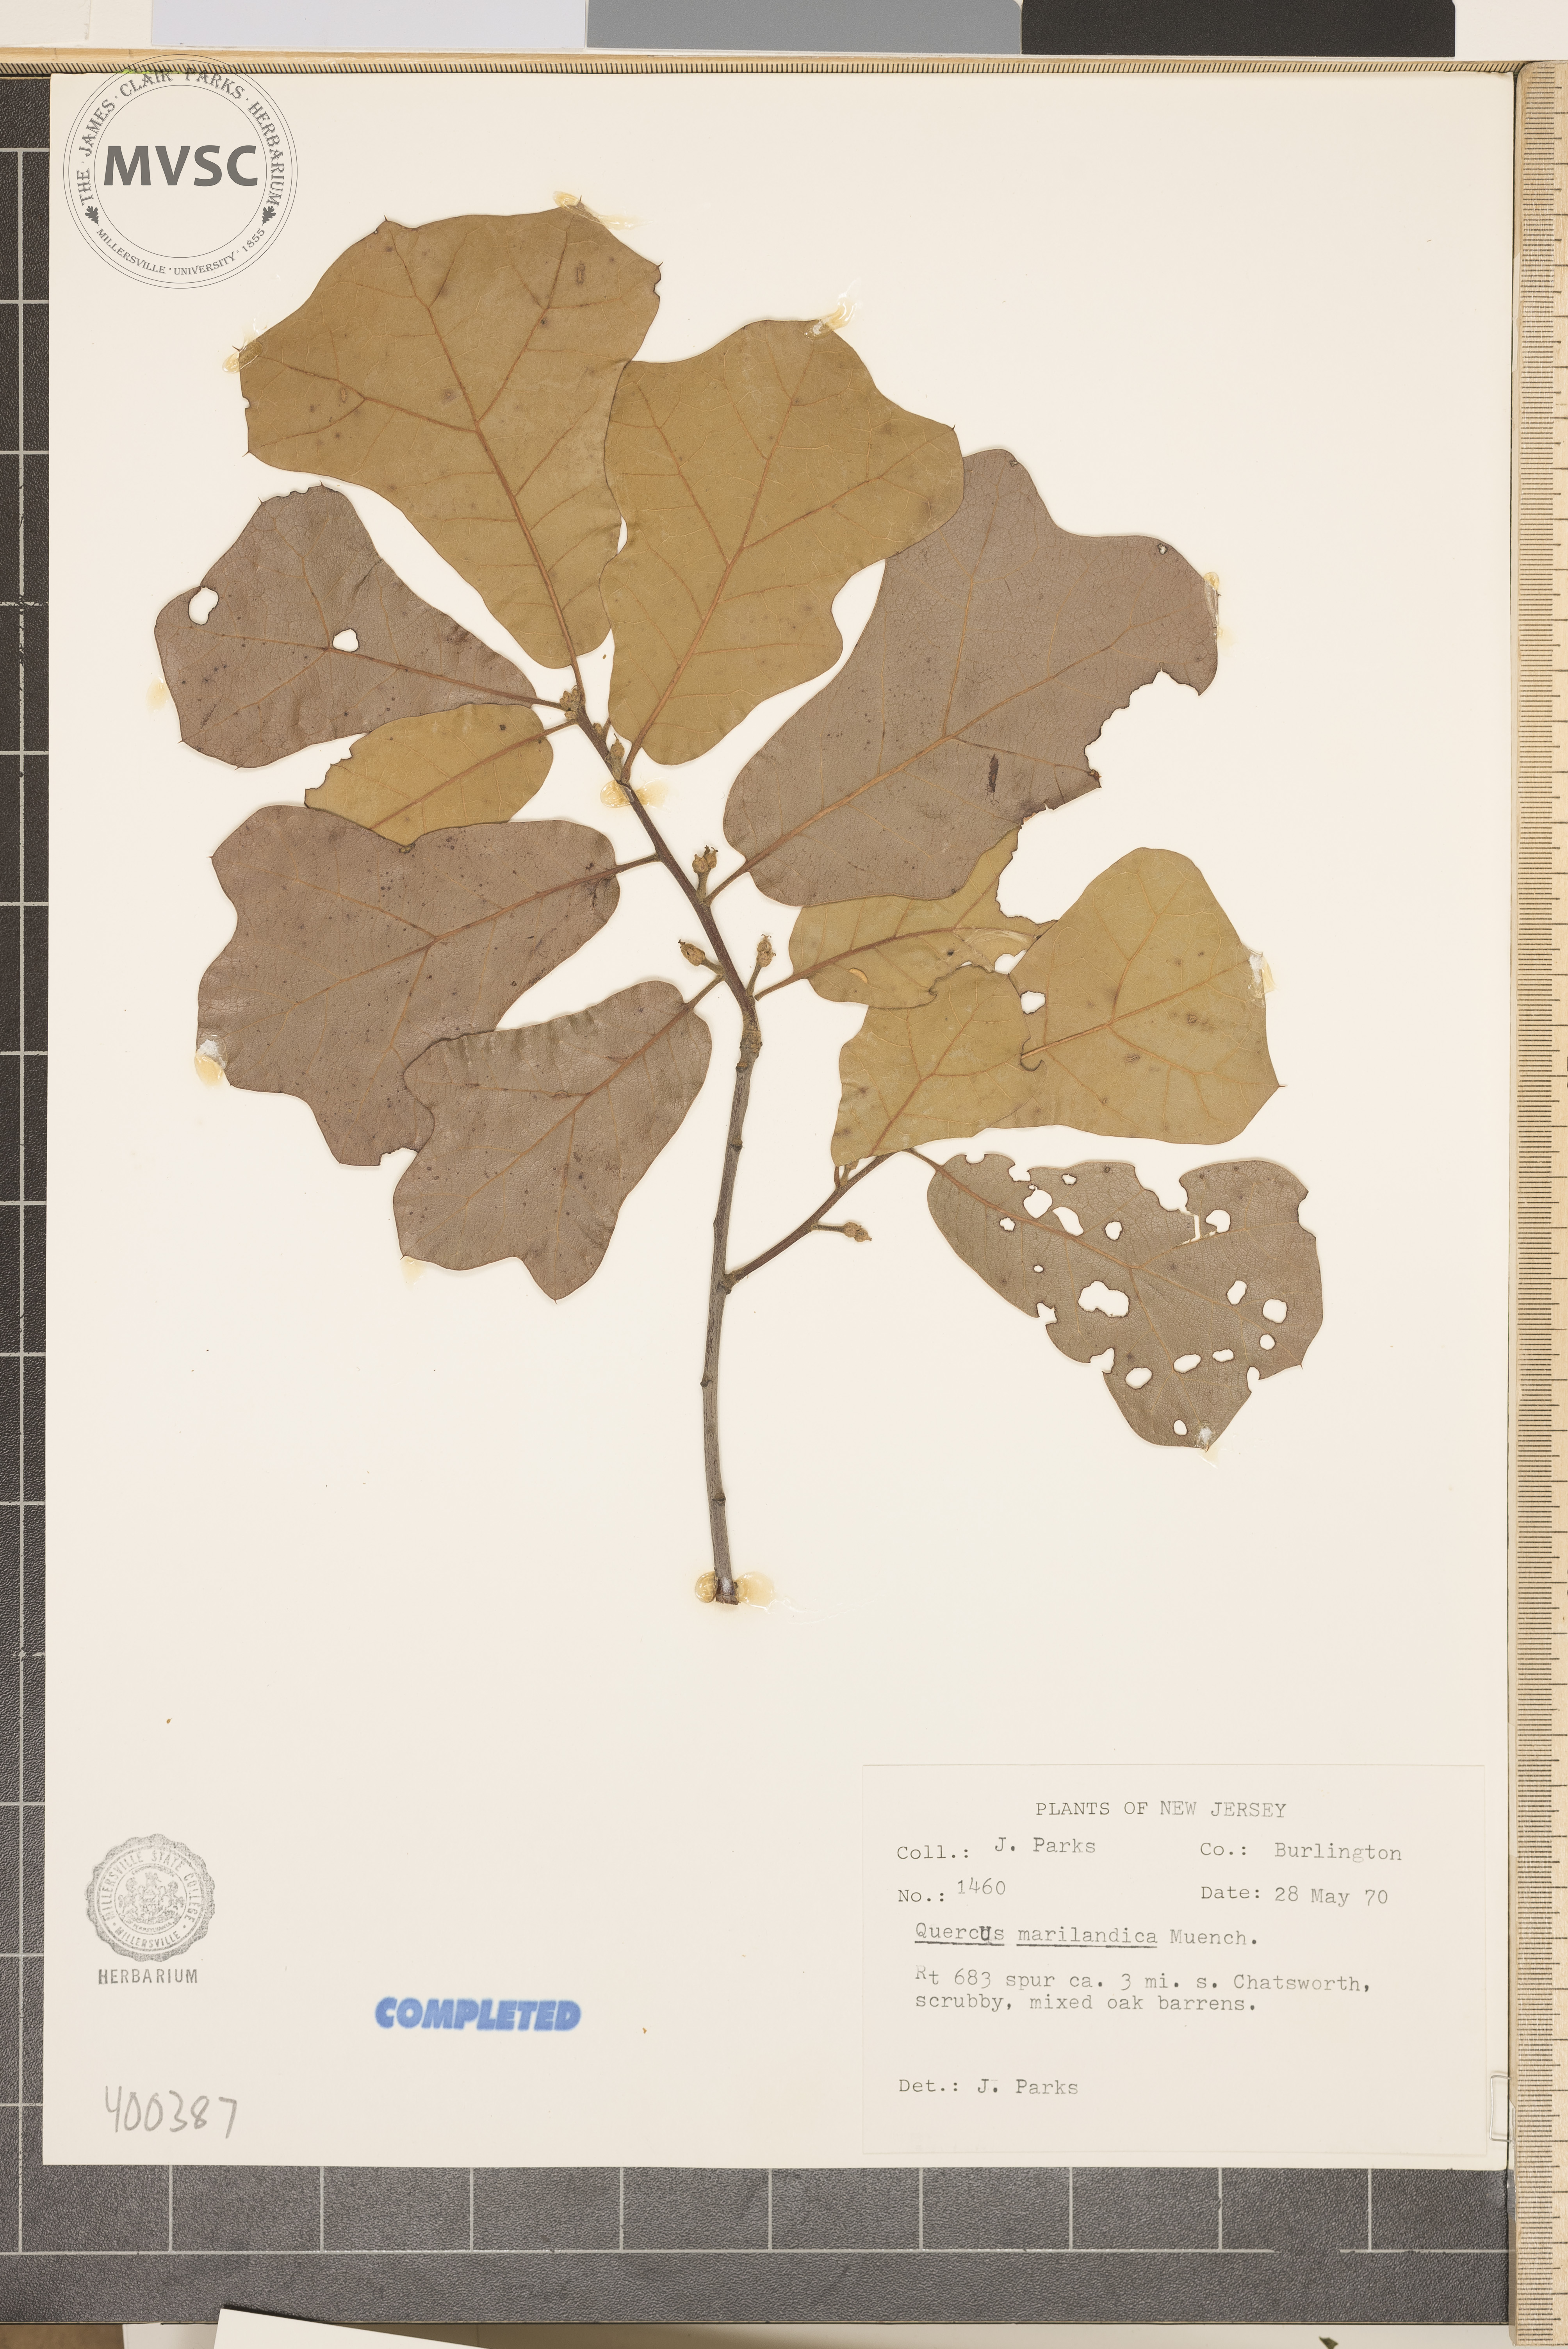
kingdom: Plantae
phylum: Tracheophyta
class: Magnoliopsida
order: Fagales
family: Fagaceae
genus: Quercus
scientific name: Quercus marilandica
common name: blackjack oak
